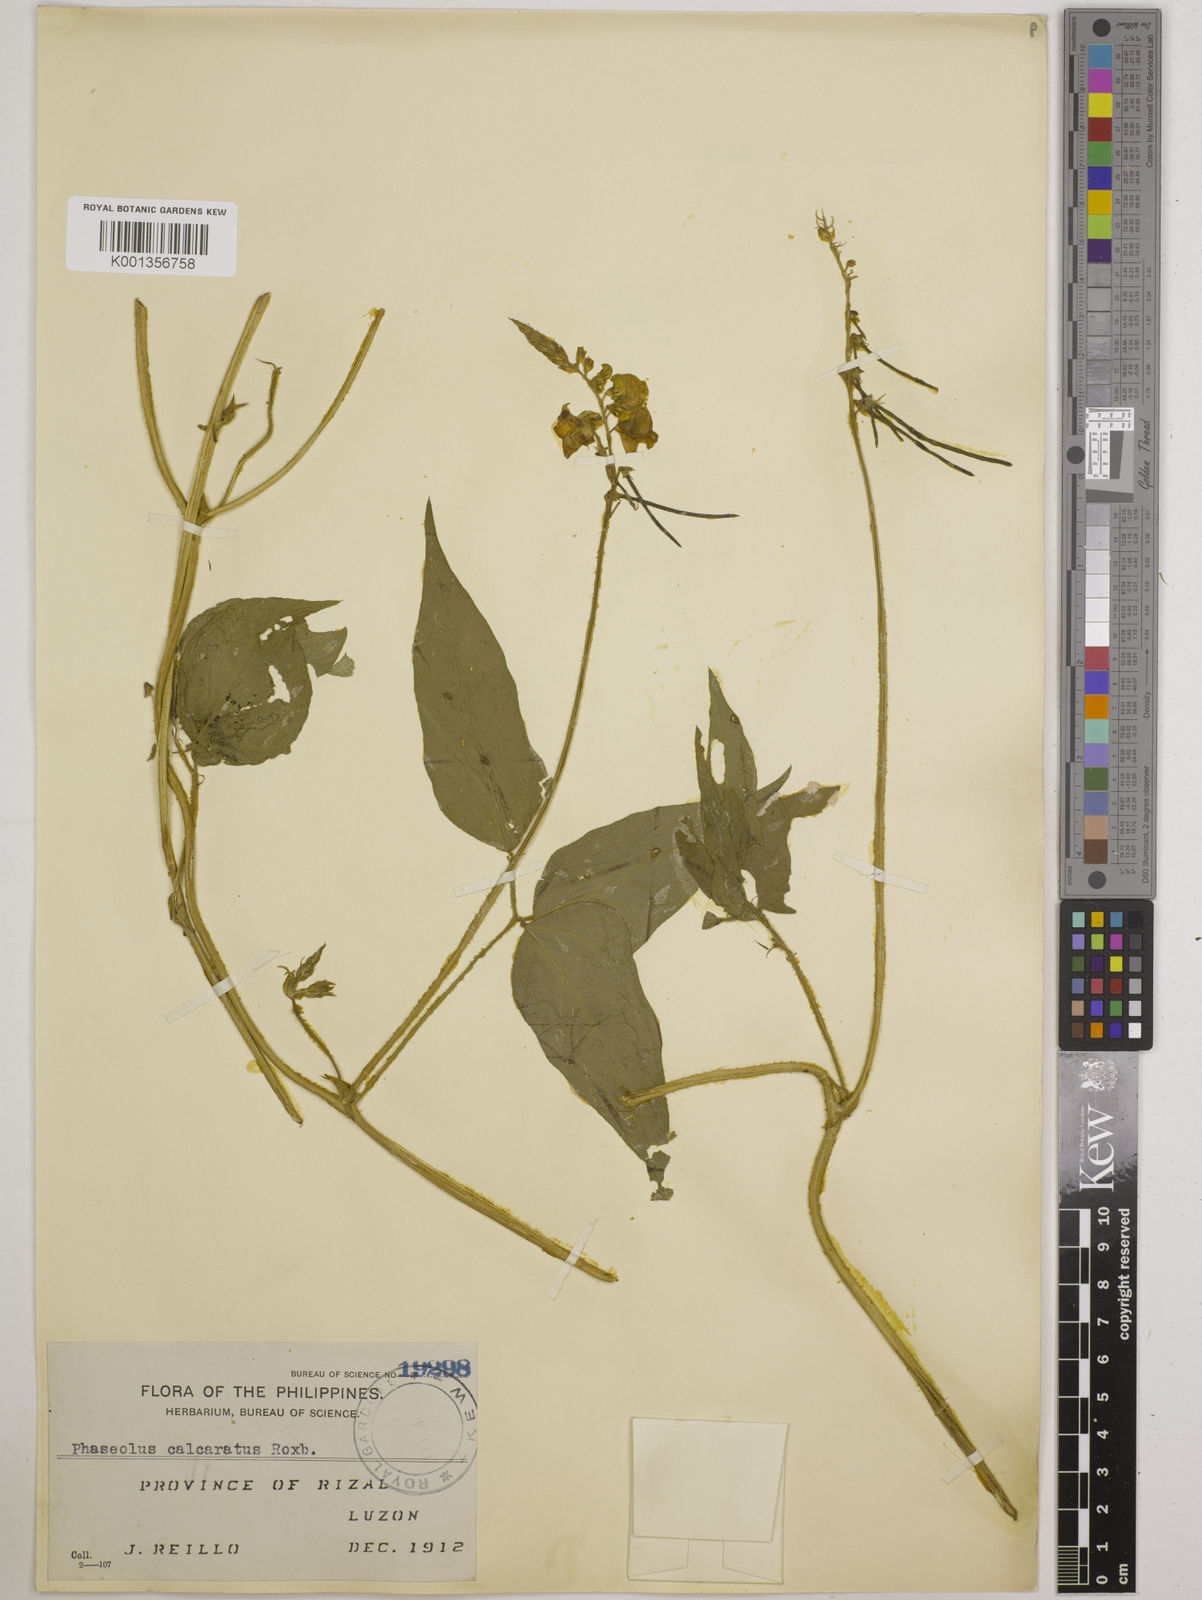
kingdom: Plantae
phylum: Tracheophyta
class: Magnoliopsida
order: Fabales
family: Fabaceae
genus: Vigna
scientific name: Vigna umbellata
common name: Oriental-bean
